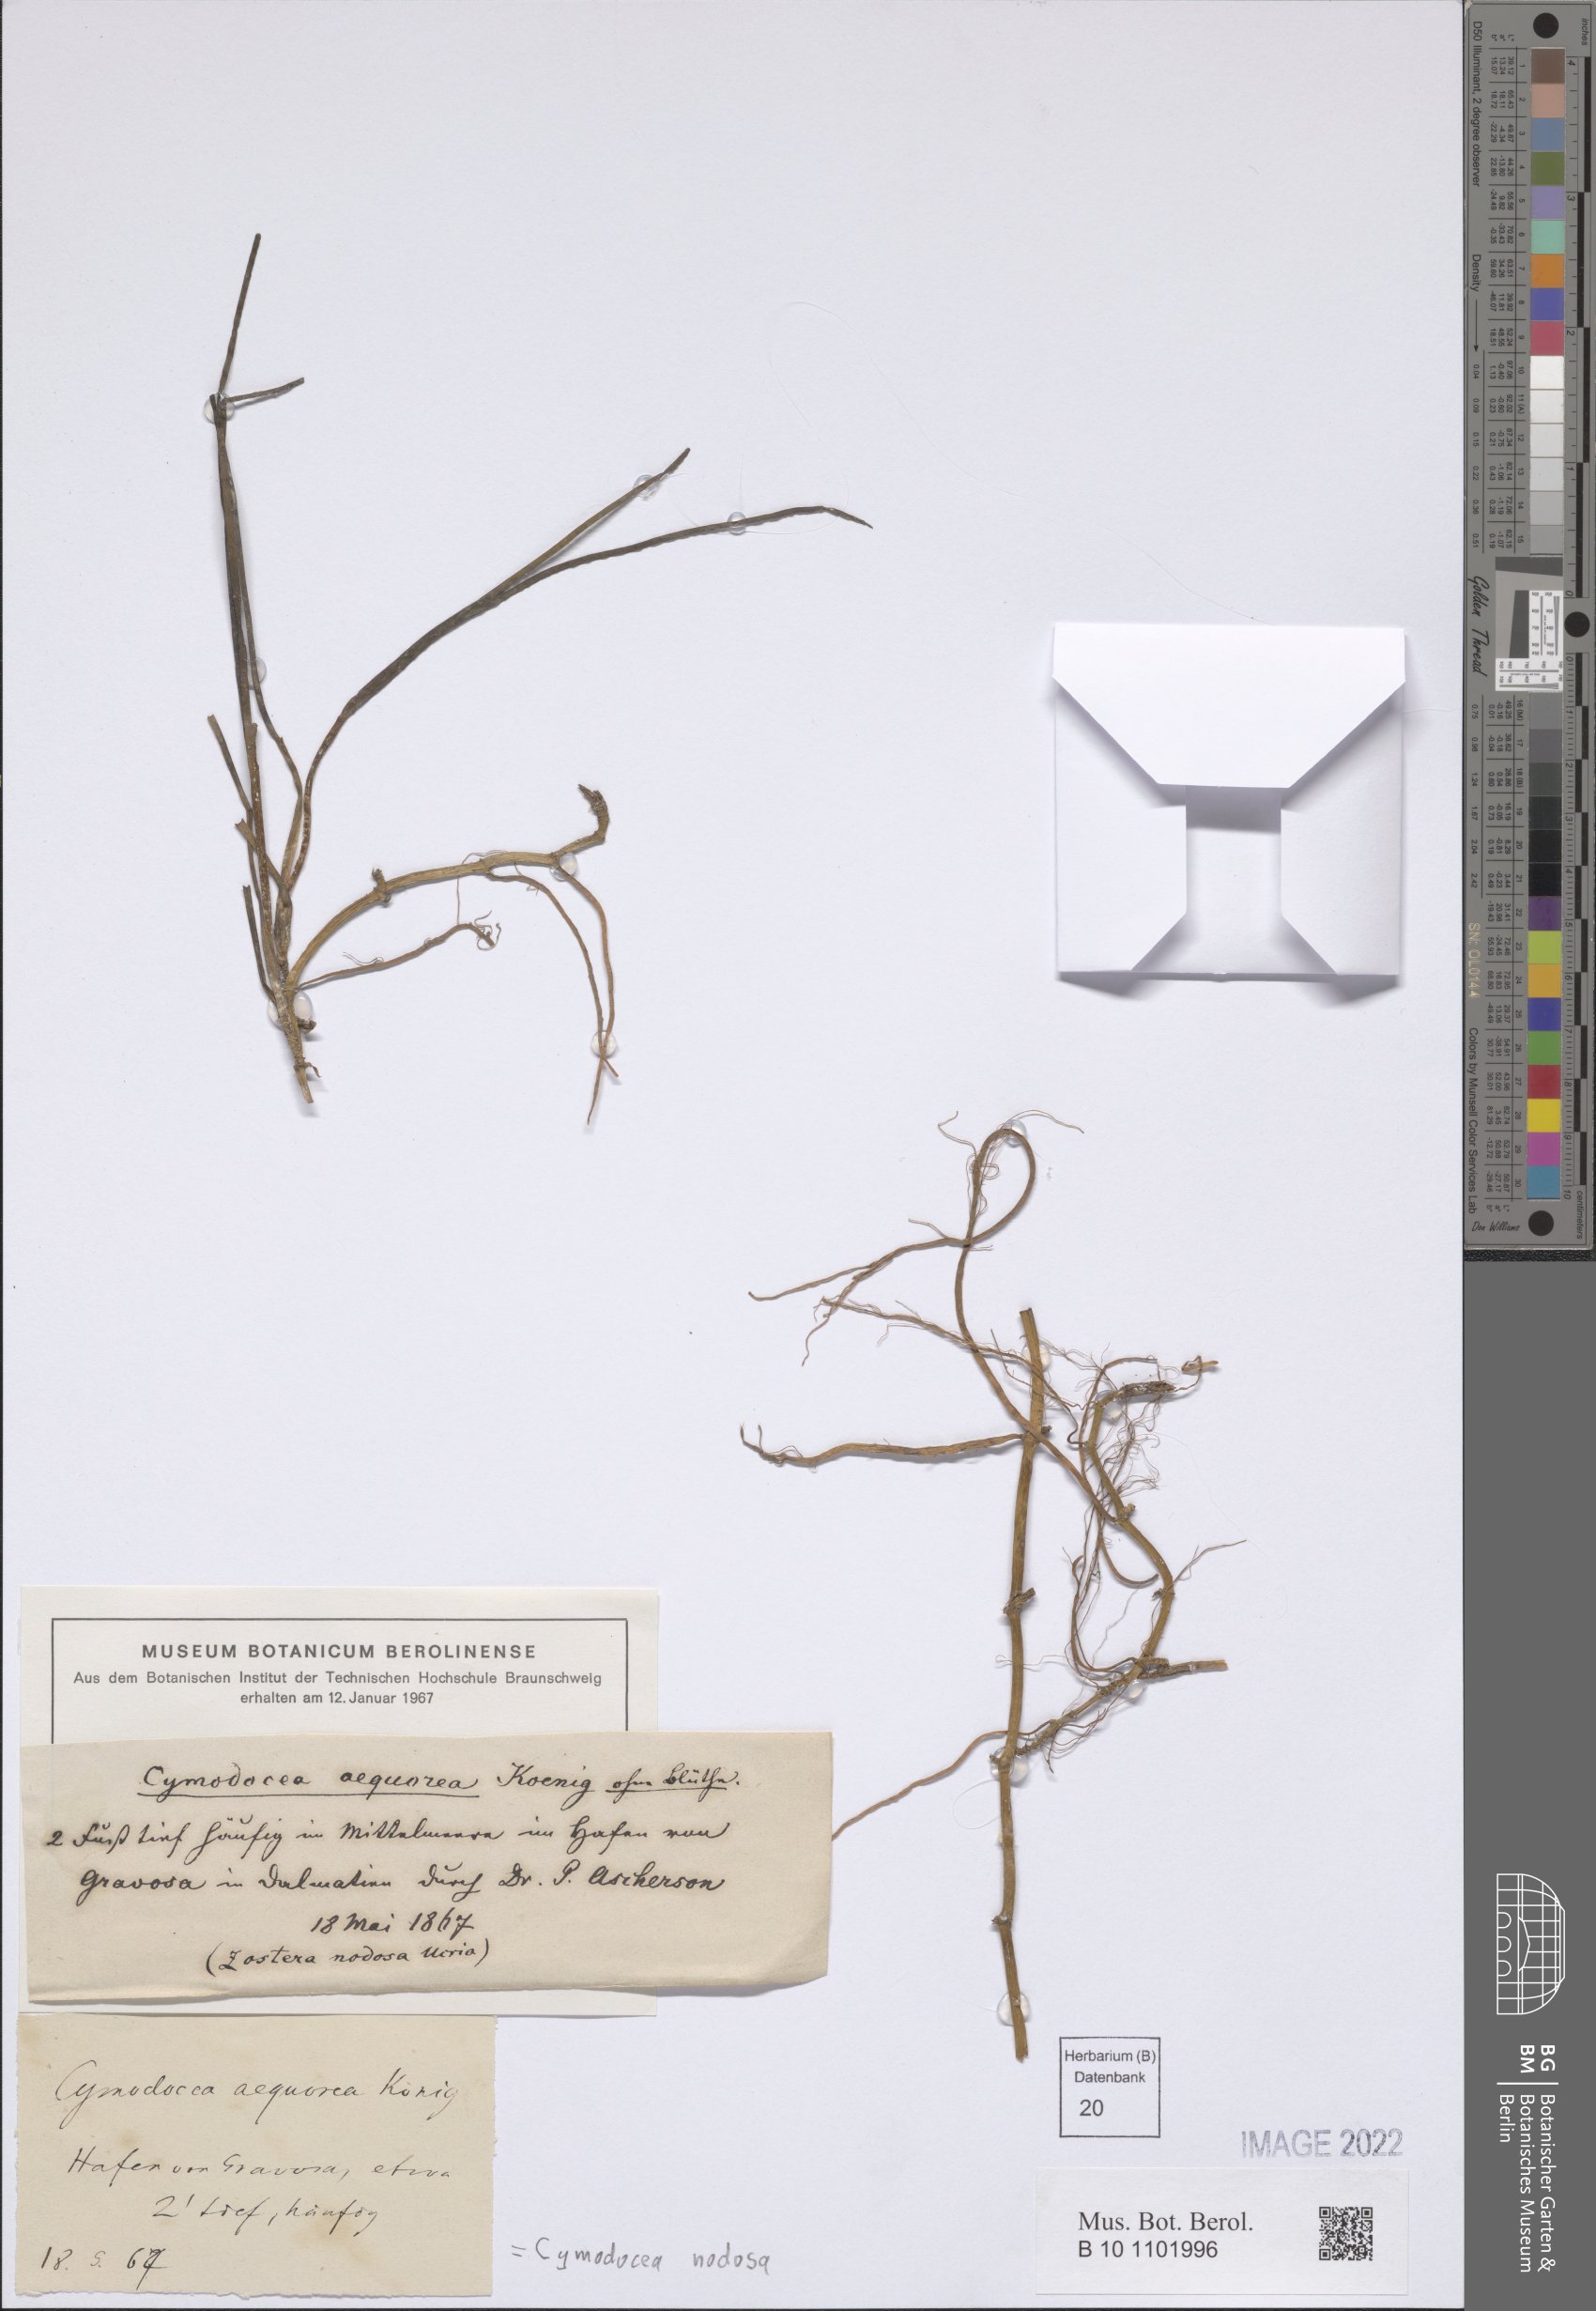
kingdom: Plantae
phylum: Tracheophyta
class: Liliopsida
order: Alismatales
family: Cymodoceaceae
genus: Cymodocea
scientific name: Cymodocea nodosa
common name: Slender seagrass
